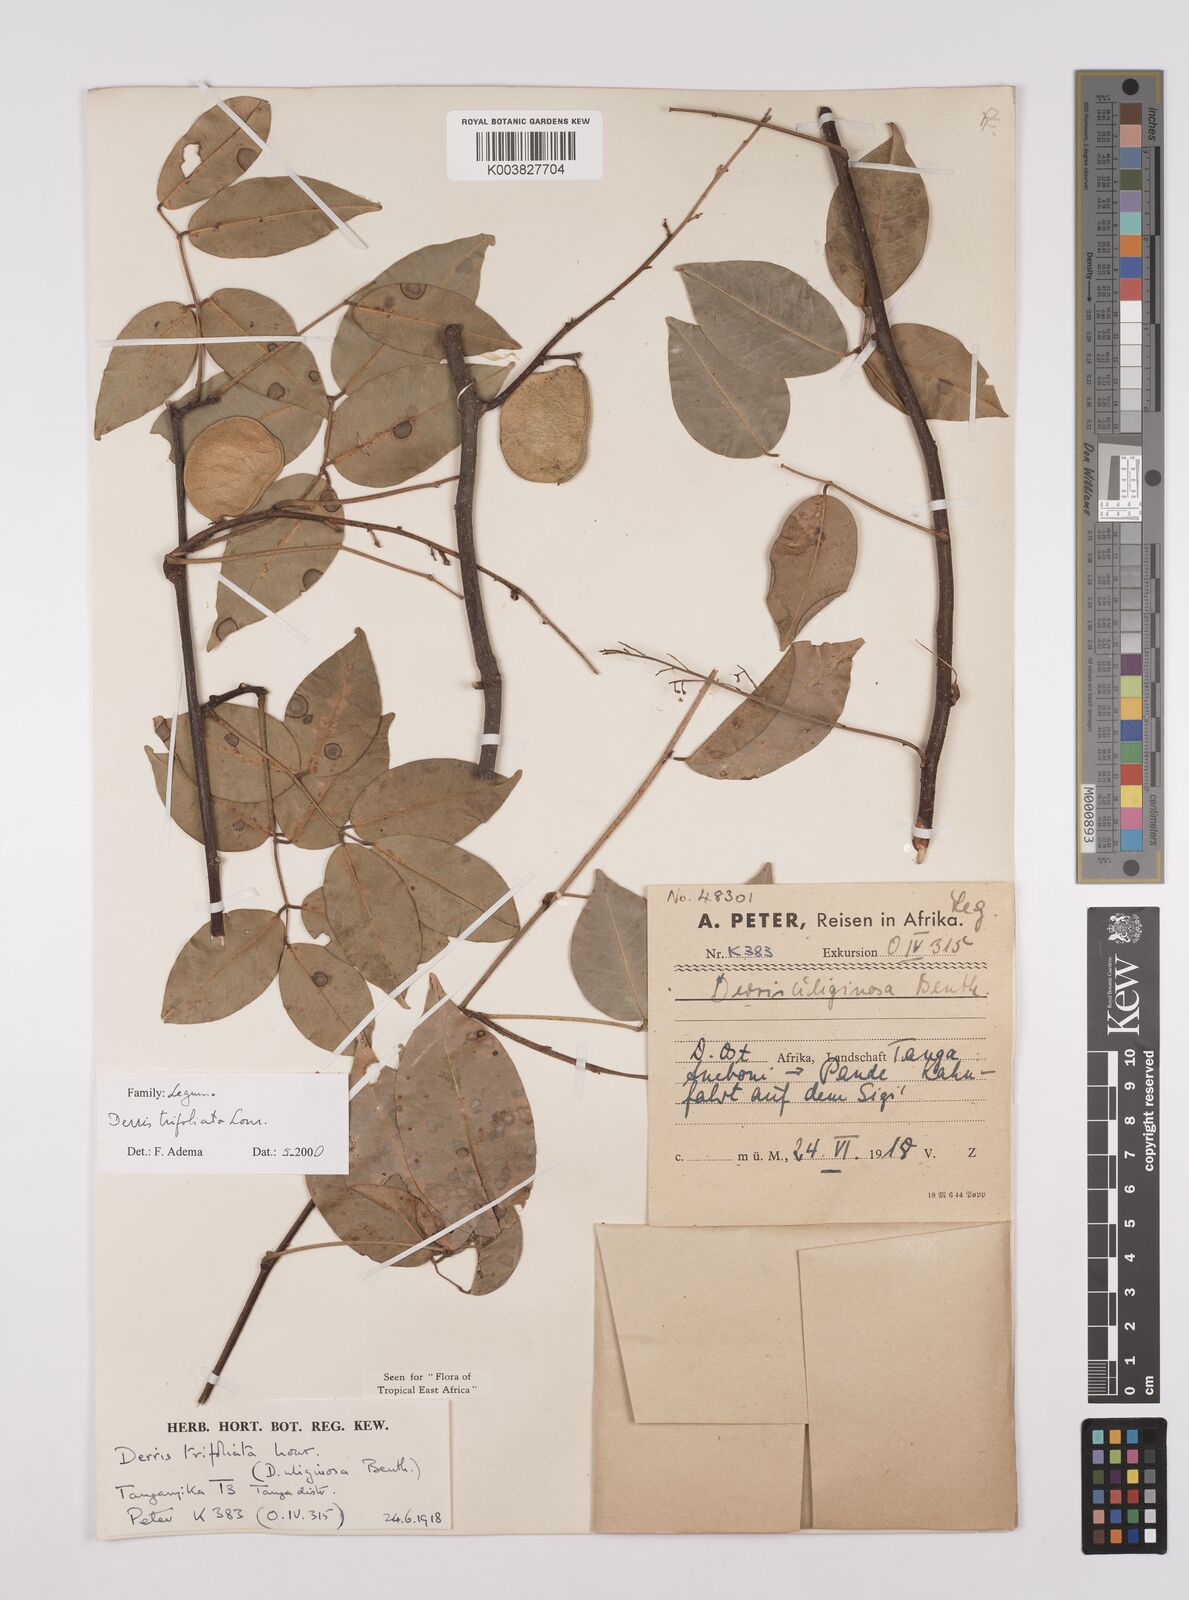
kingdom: Plantae
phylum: Tracheophyta
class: Magnoliopsida
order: Fabales
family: Fabaceae
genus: Derris
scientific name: Derris trifoliata
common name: Three-leaf derris
